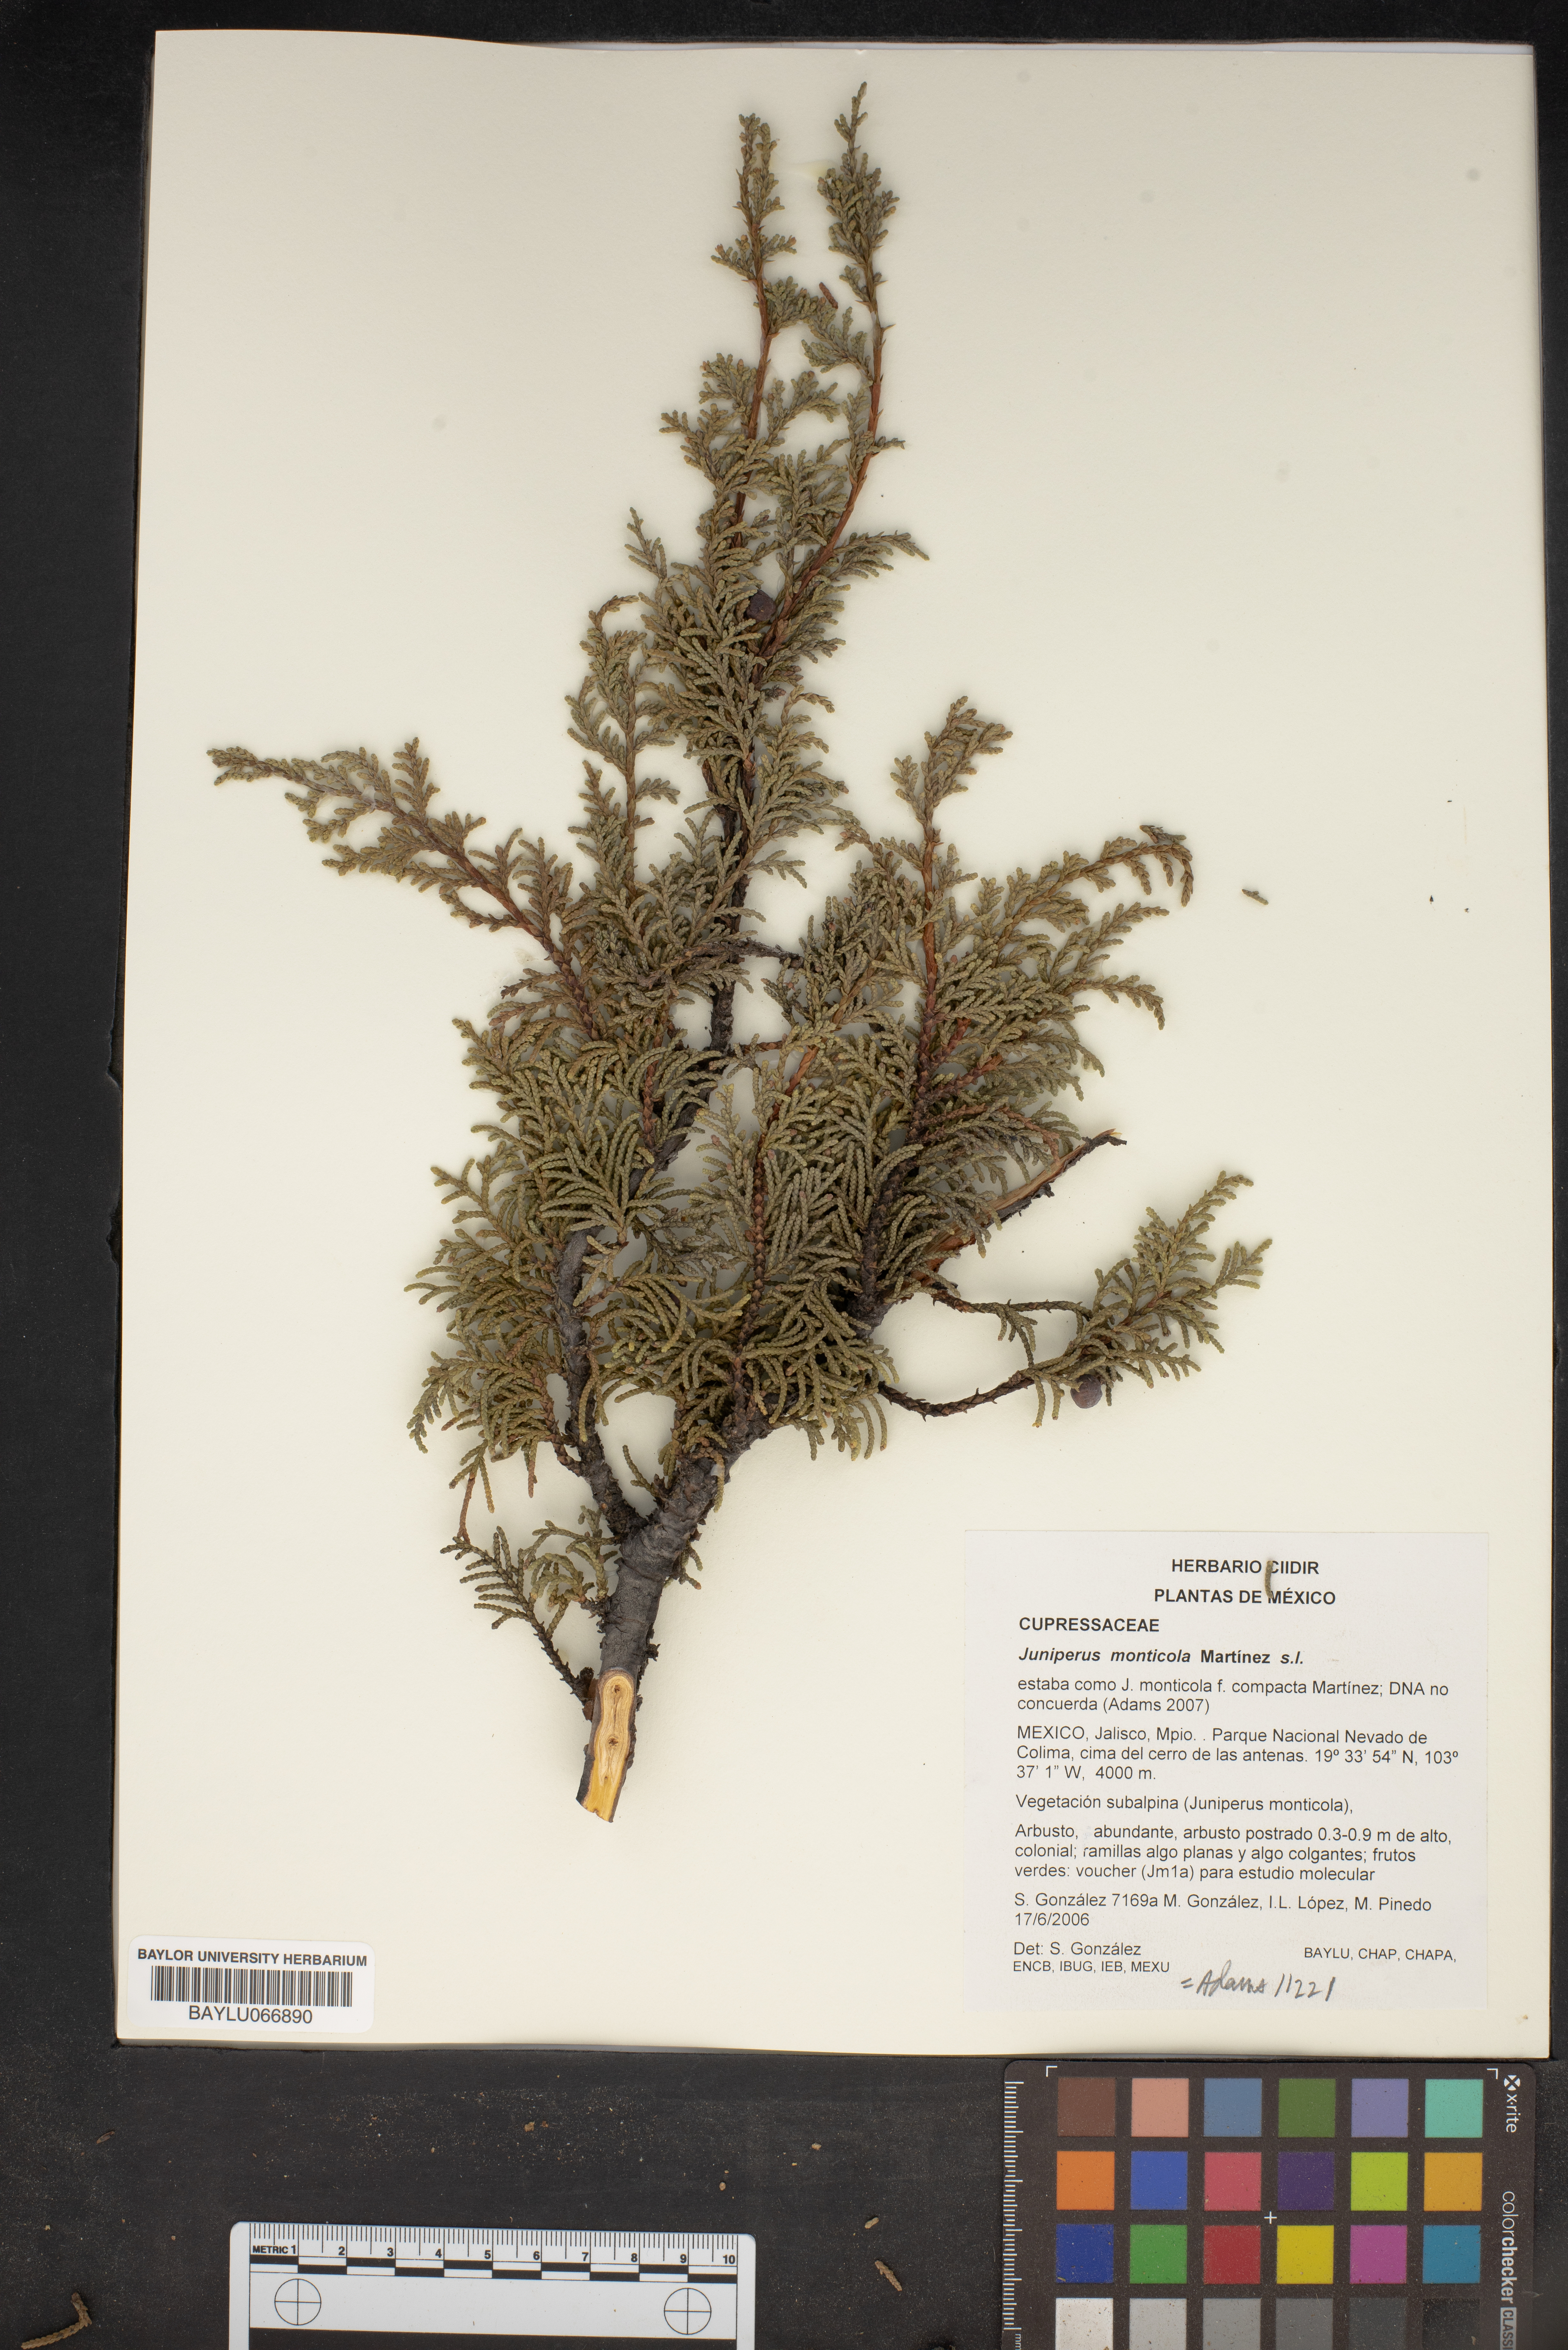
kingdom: Plantae
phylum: Tracheophyta
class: Pinopsida
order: Pinales
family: Cupressaceae
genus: Juniperus
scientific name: Juniperus monticola
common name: Mexican juniper
